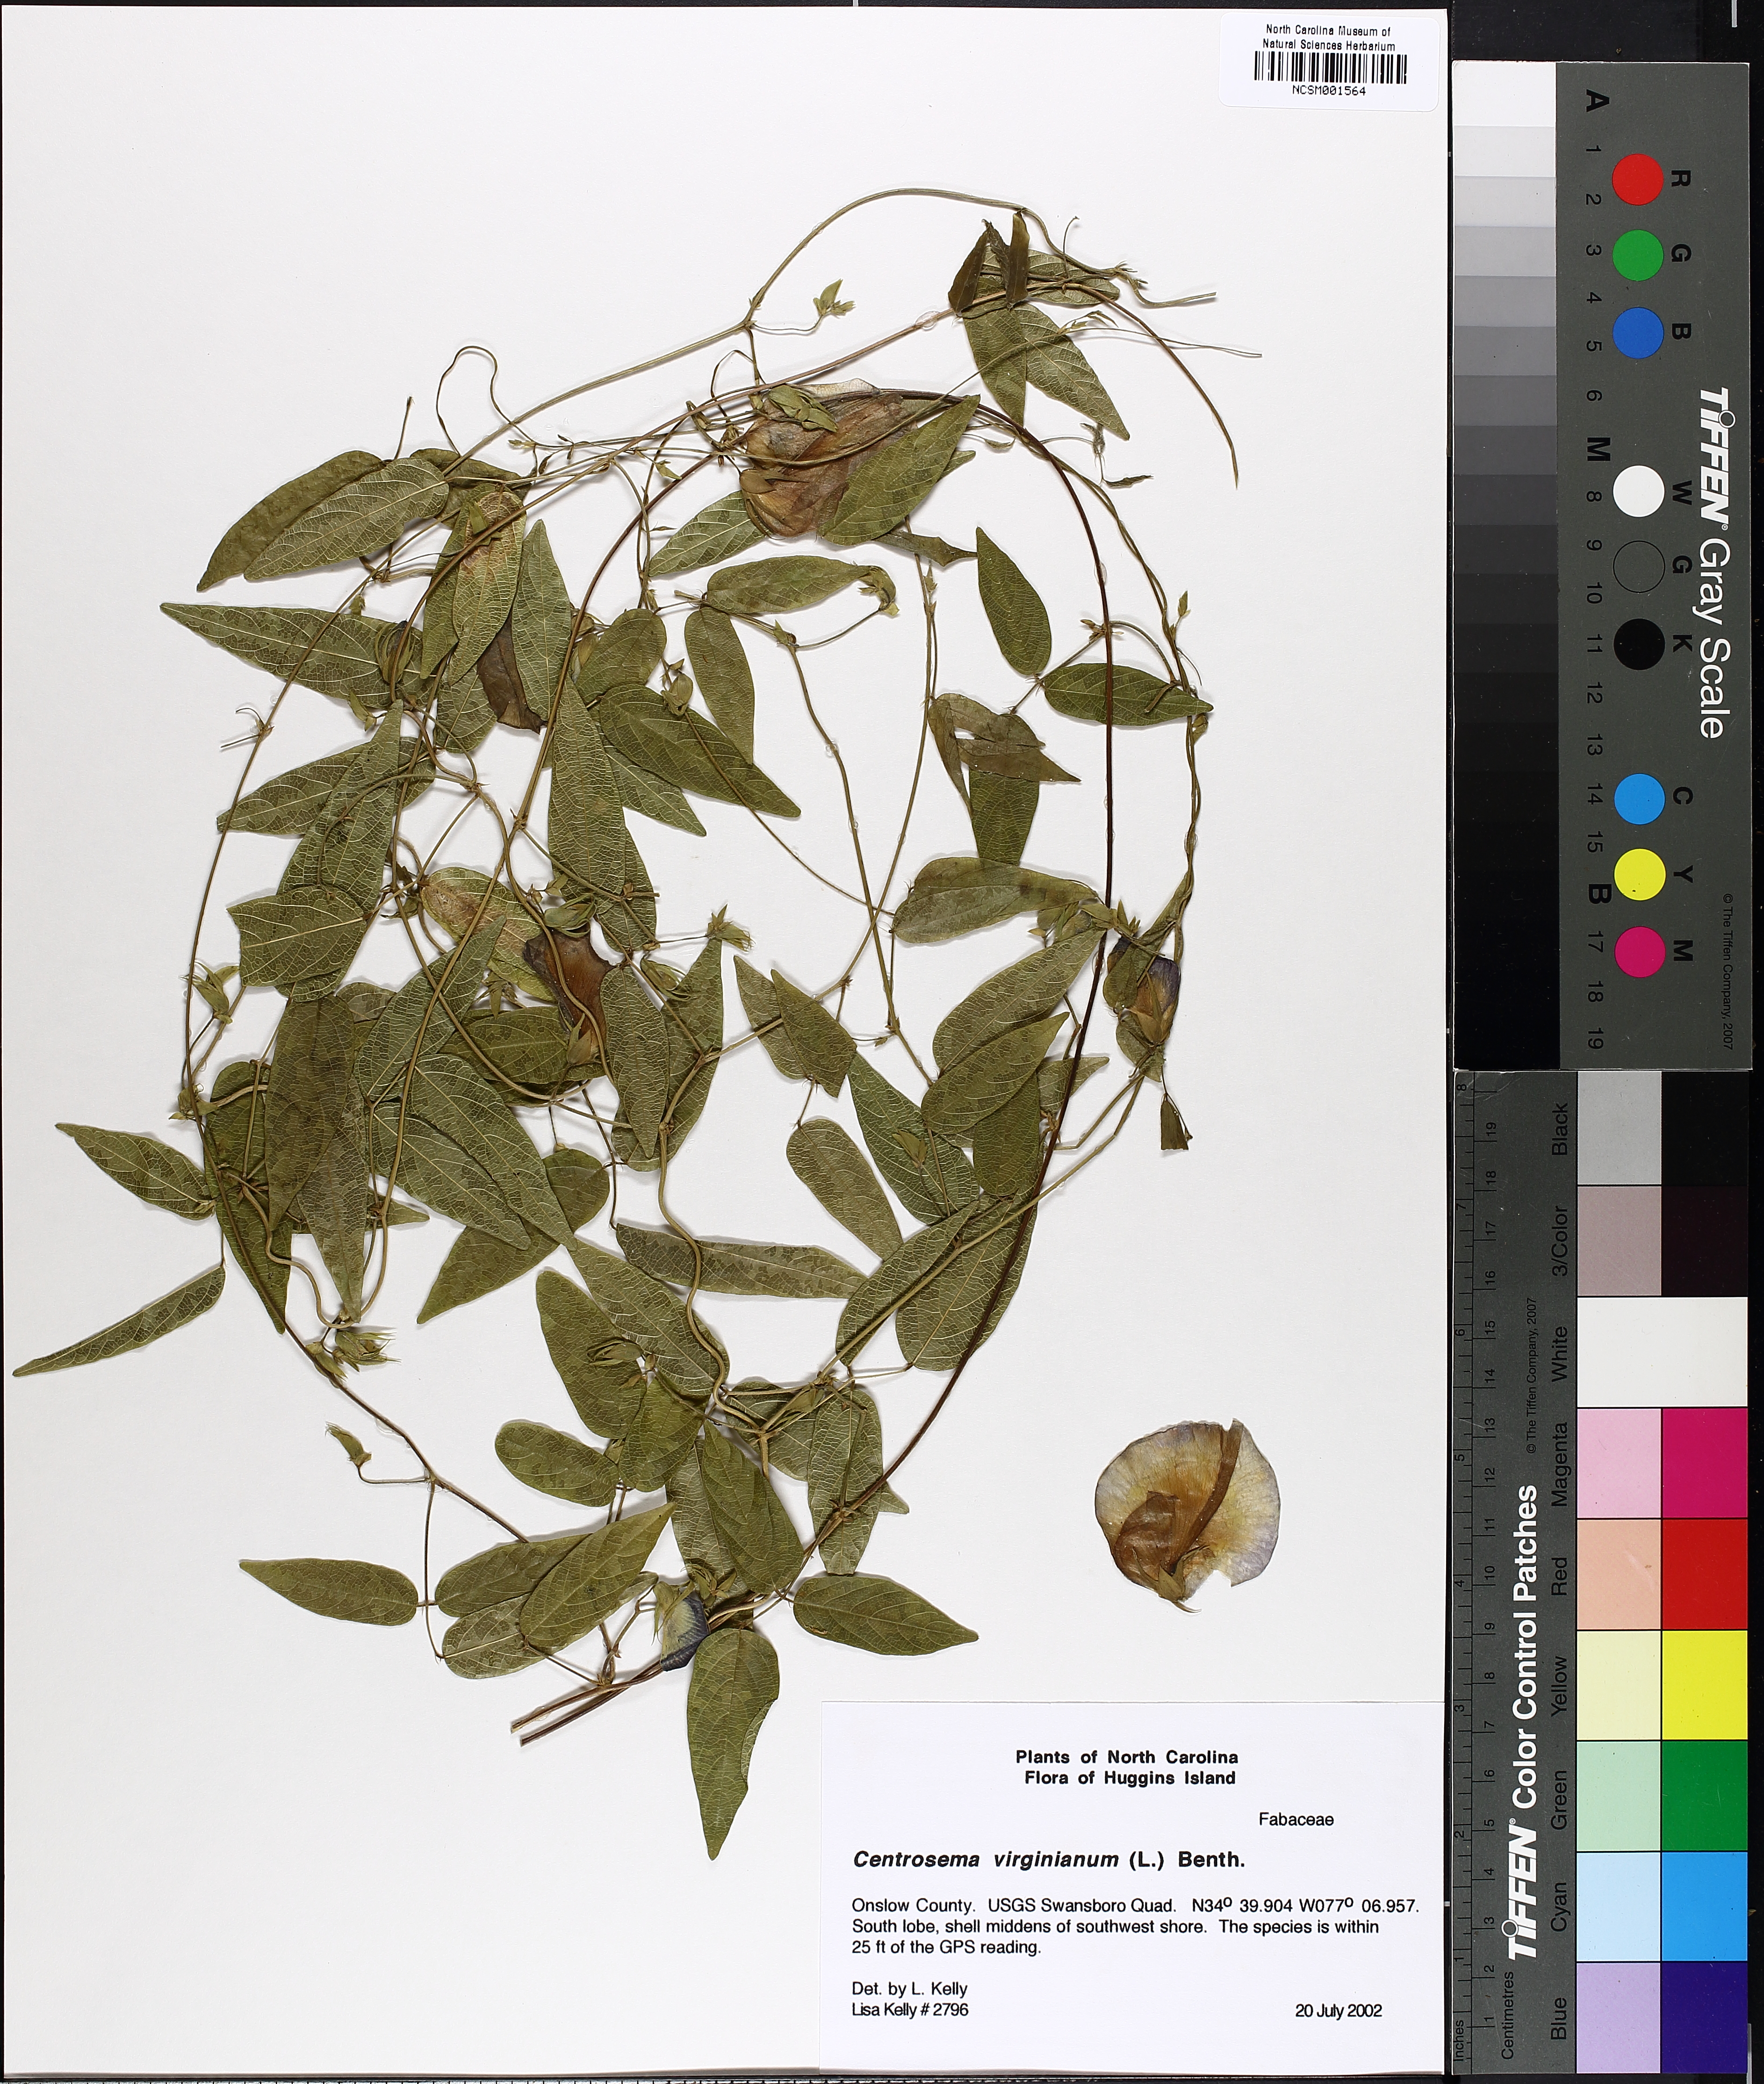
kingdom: Plantae
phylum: Tracheophyta
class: Magnoliopsida
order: Fabales
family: Fabaceae
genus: Centrosema
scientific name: Centrosema virginianum
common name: Butterfly-pea
